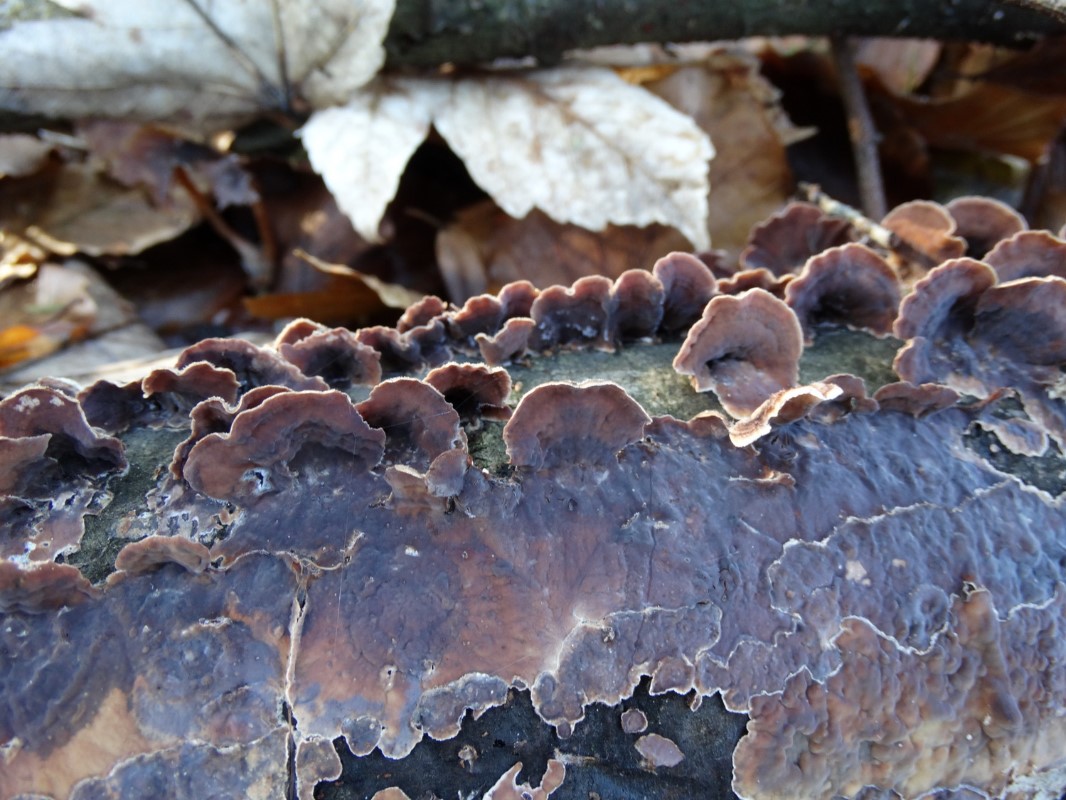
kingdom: Fungi
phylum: Basidiomycota
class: Agaricomycetes
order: Agaricales
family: Cyphellaceae
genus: Chondrostereum
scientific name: Chondrostereum purpureum
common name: purpurlædersvamp
